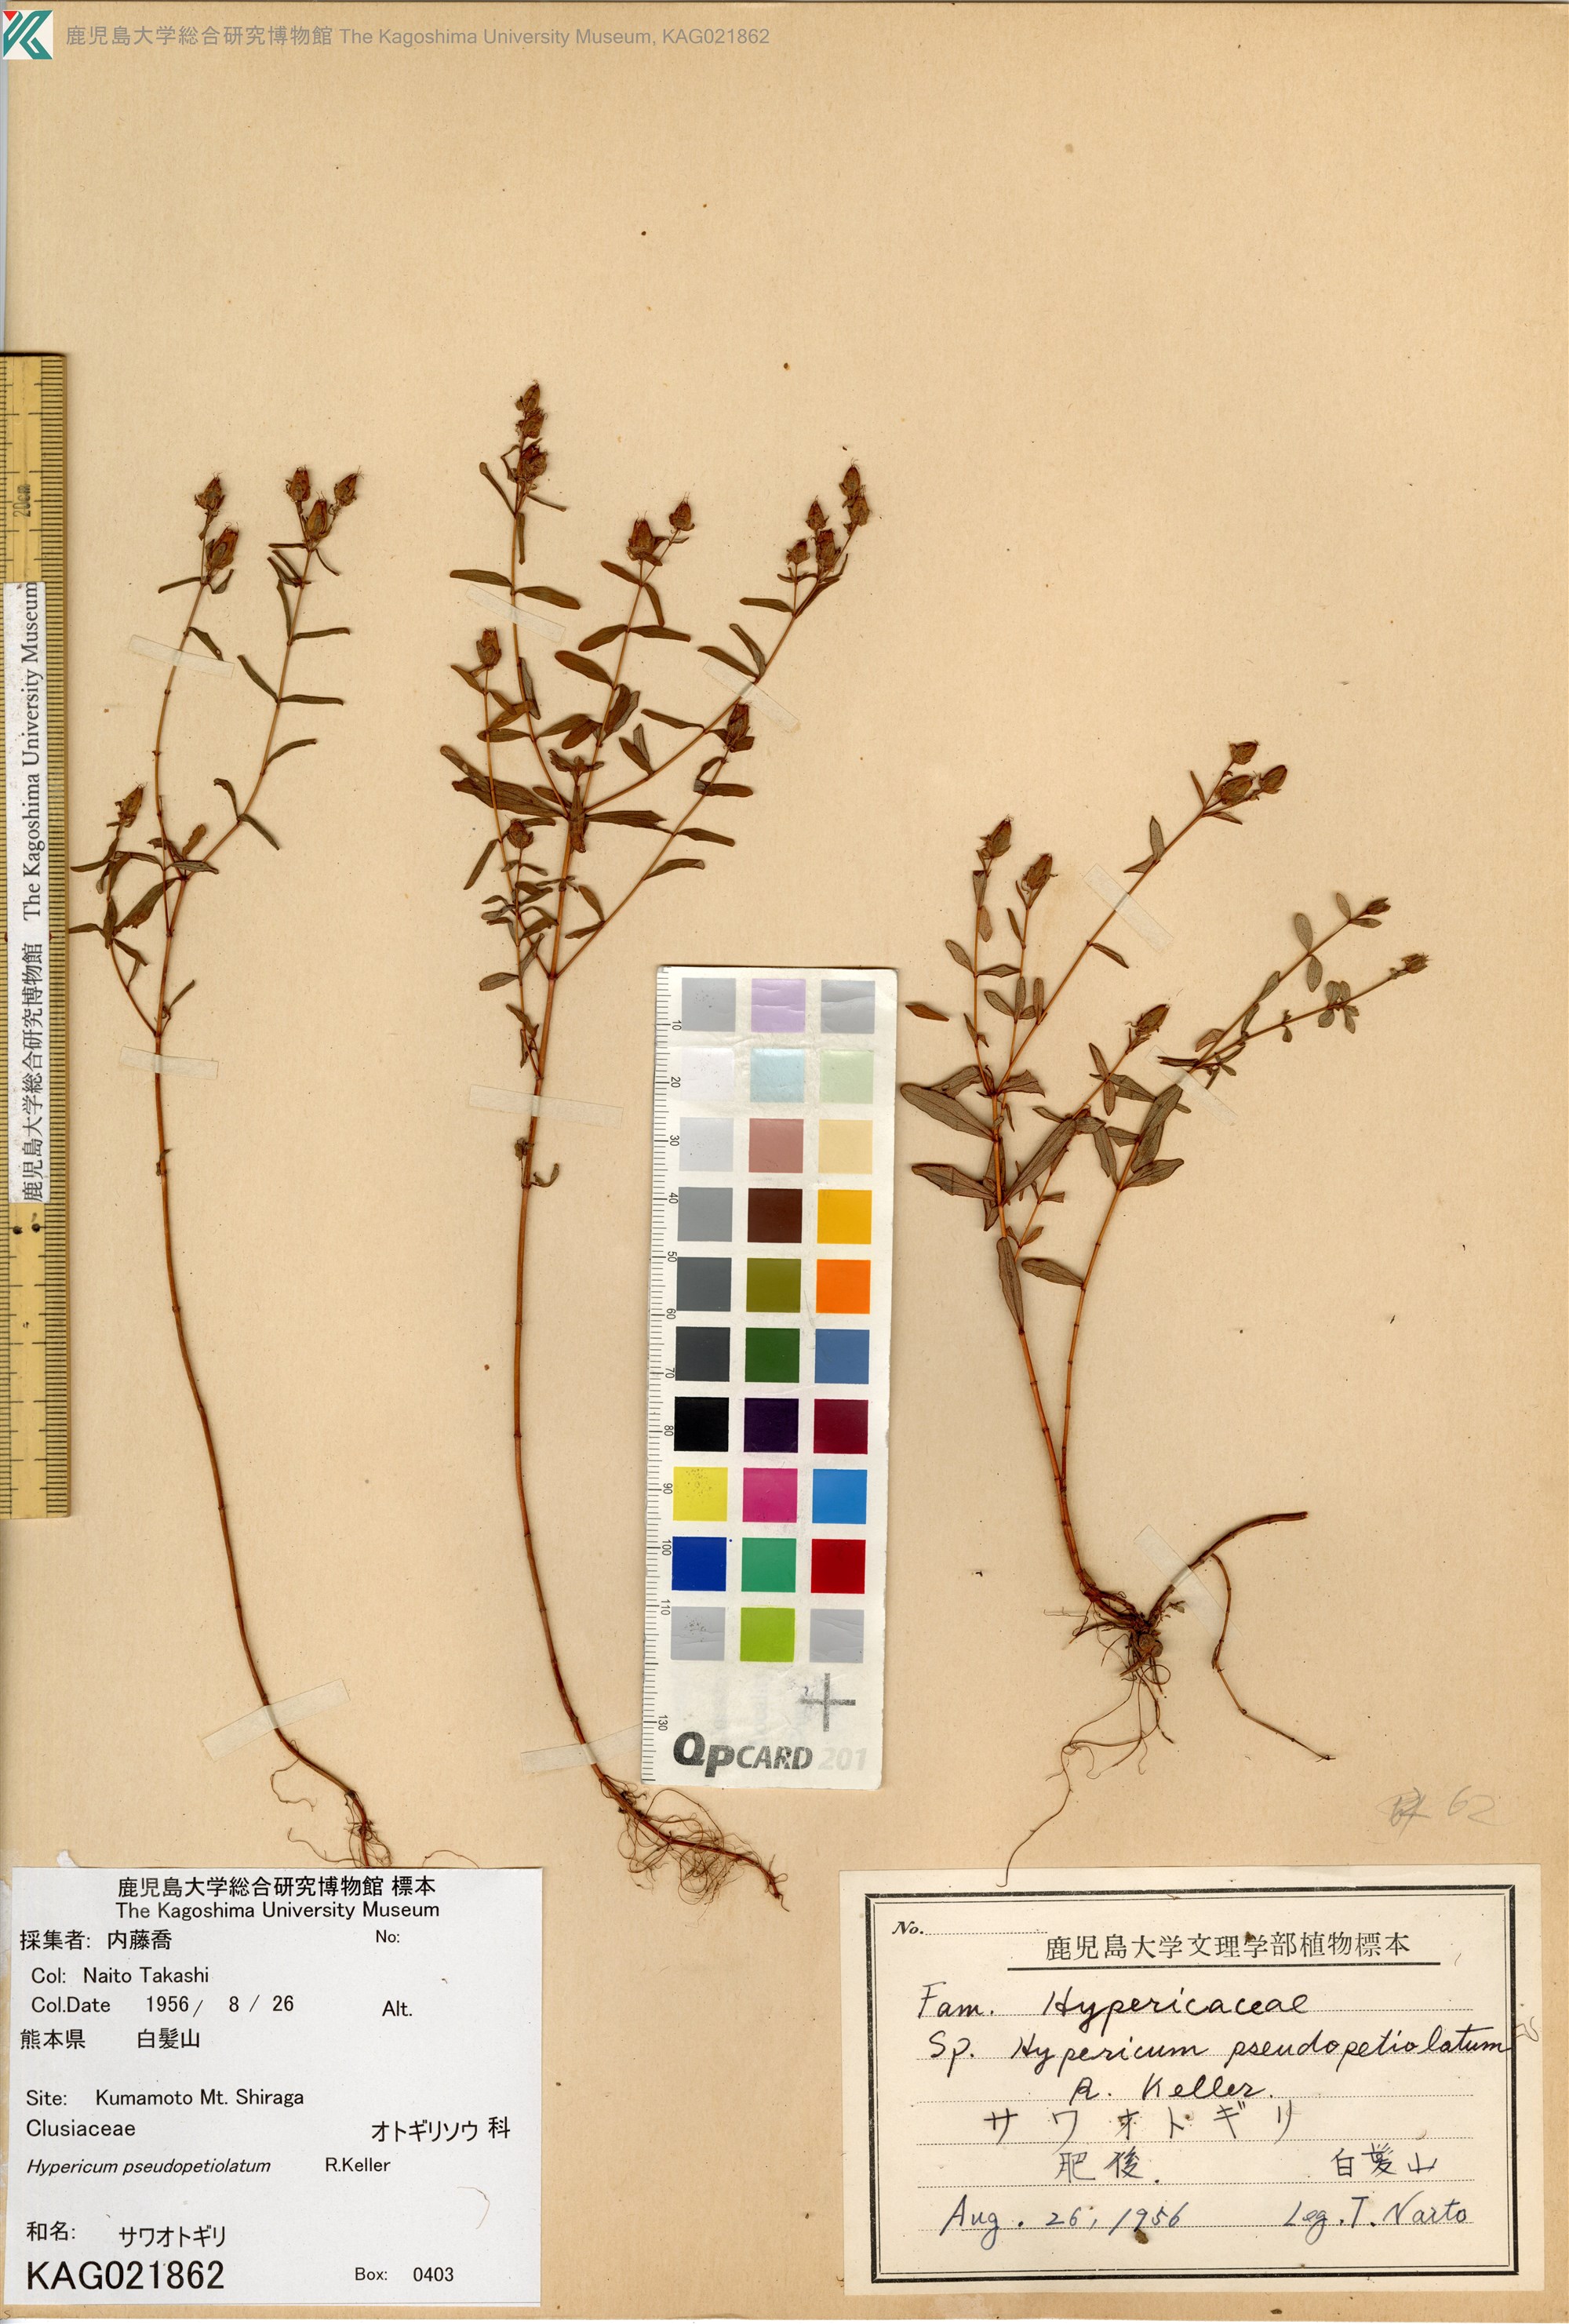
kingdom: Plantae
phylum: Tracheophyta
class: Magnoliopsida
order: Malpighiales
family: Hypericaceae
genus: Hypericum
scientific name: Hypericum pseudopetiolatum
